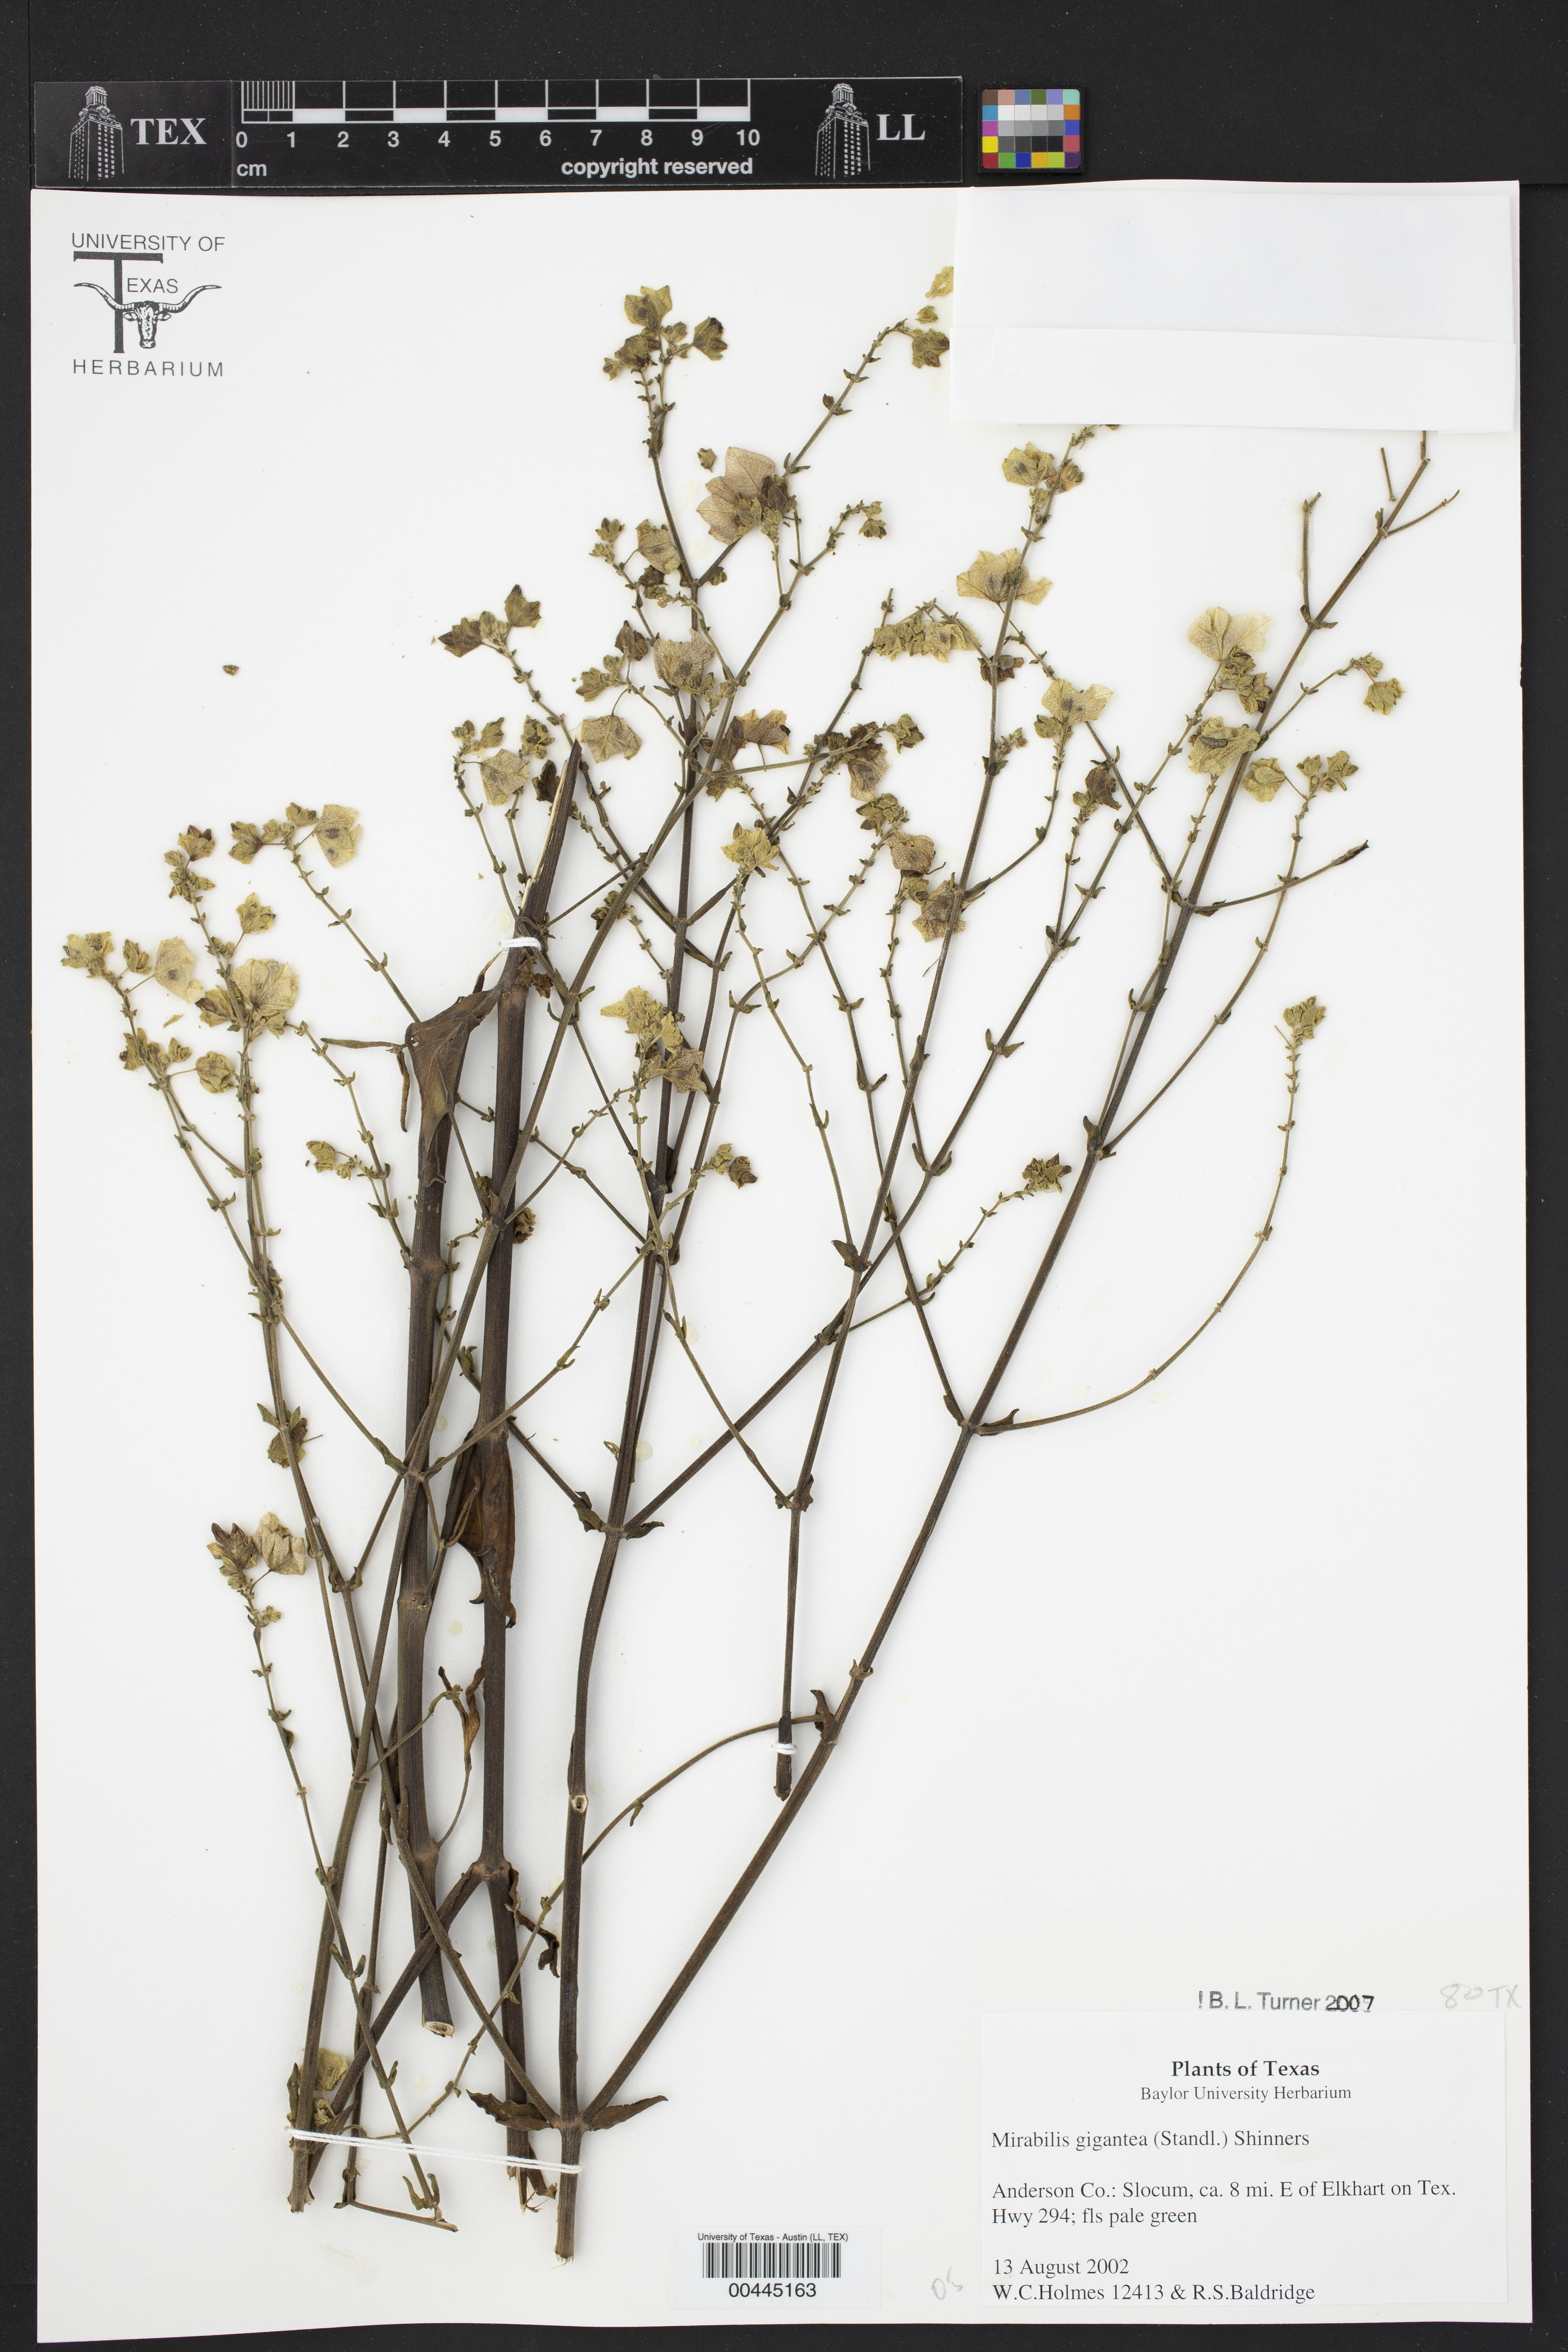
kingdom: Plantae
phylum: Tracheophyta
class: Magnoliopsida
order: Caryophyllales
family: Nyctaginaceae
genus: Mirabilis
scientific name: Mirabilis gigantea
